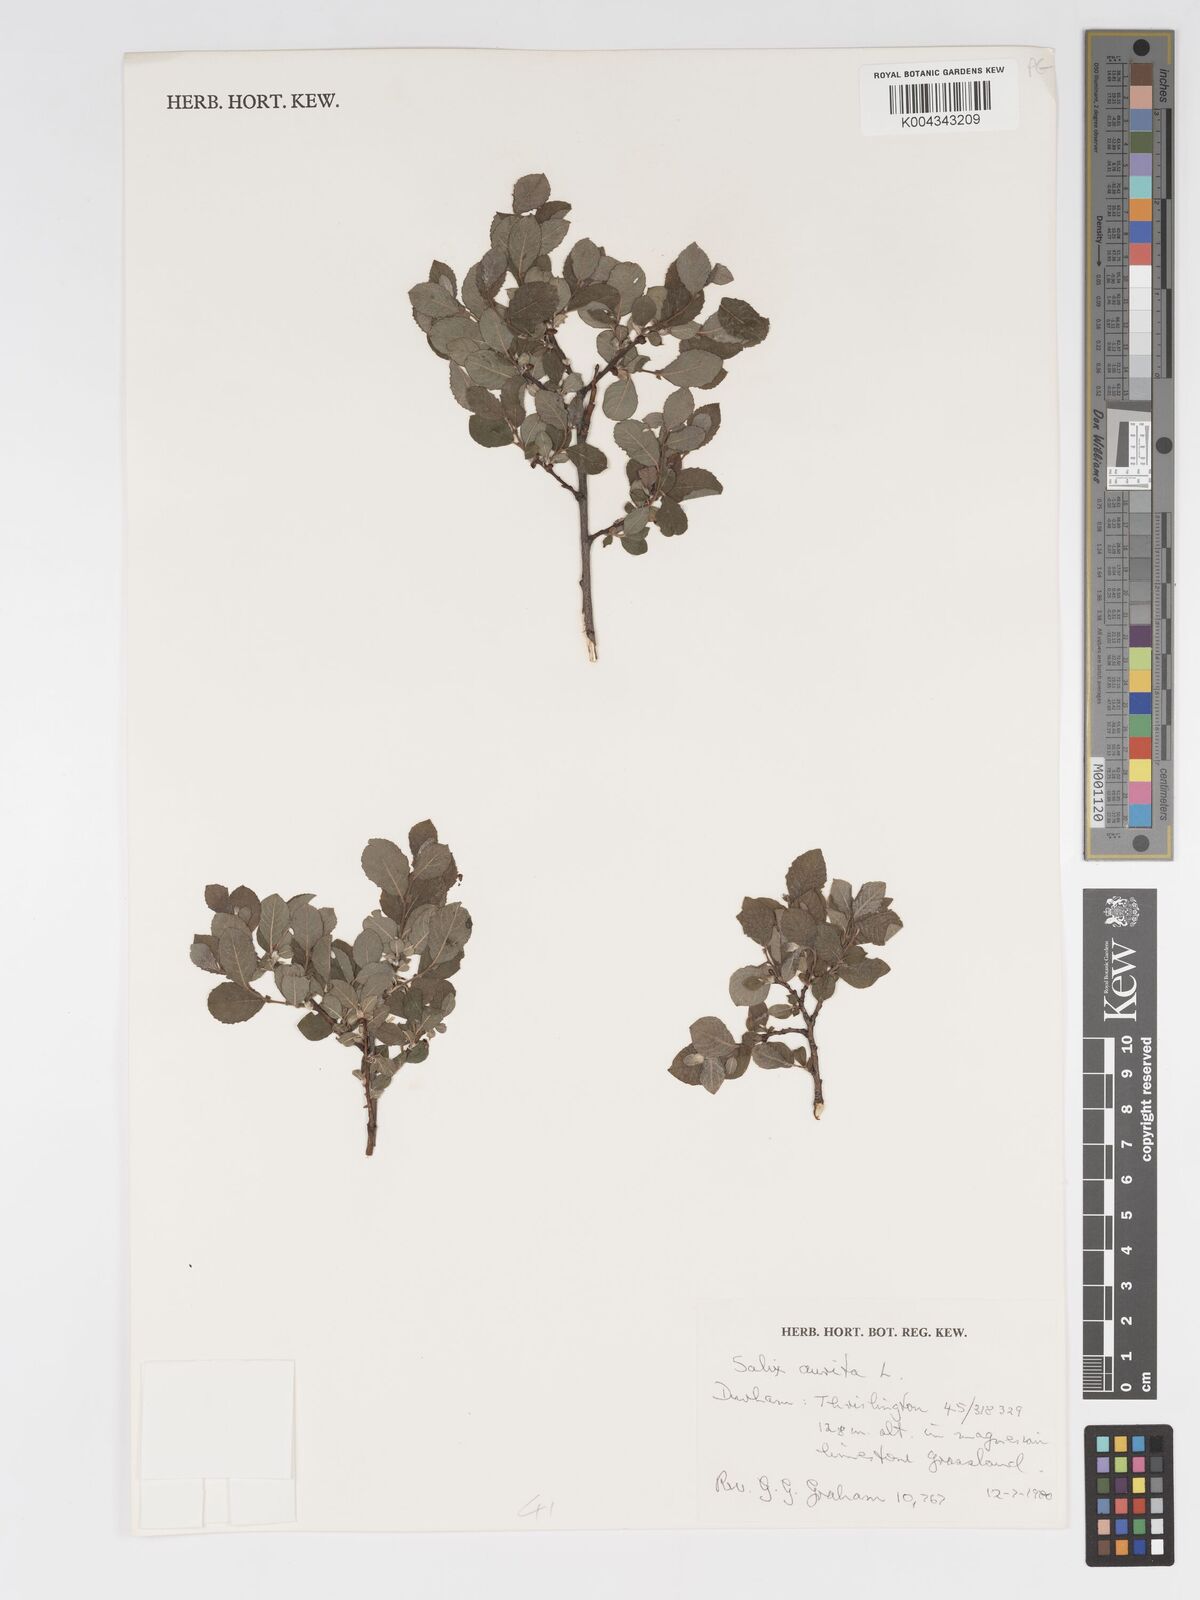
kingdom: Plantae
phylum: Tracheophyta
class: Magnoliopsida
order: Malpighiales
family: Salicaceae
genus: Salix
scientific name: Salix aurita
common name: Eared willow
